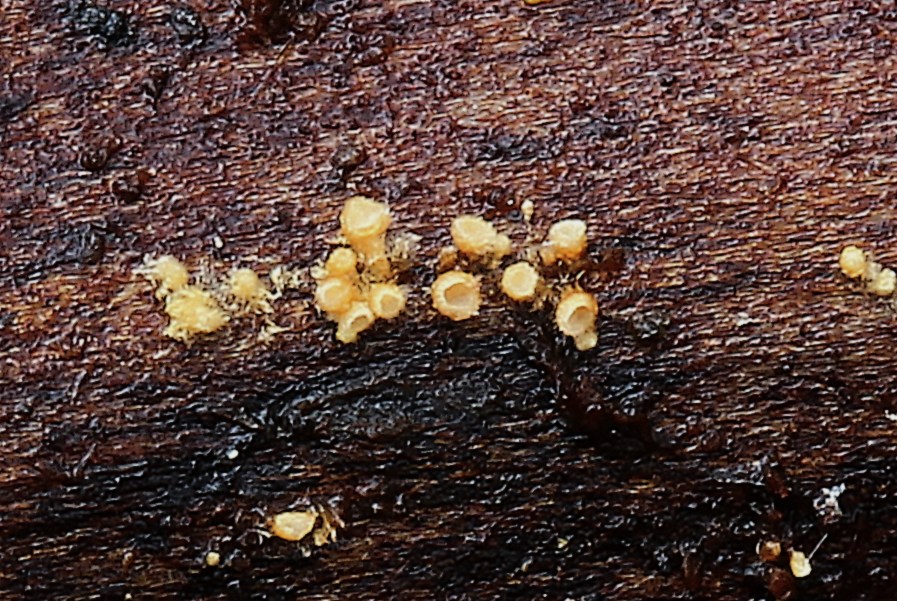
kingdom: Fungi
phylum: Basidiomycota
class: Agaricomycetes
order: Agaricales
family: Niaceae
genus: Woldmaria
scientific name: Woldmaria filicina
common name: bregnerør
